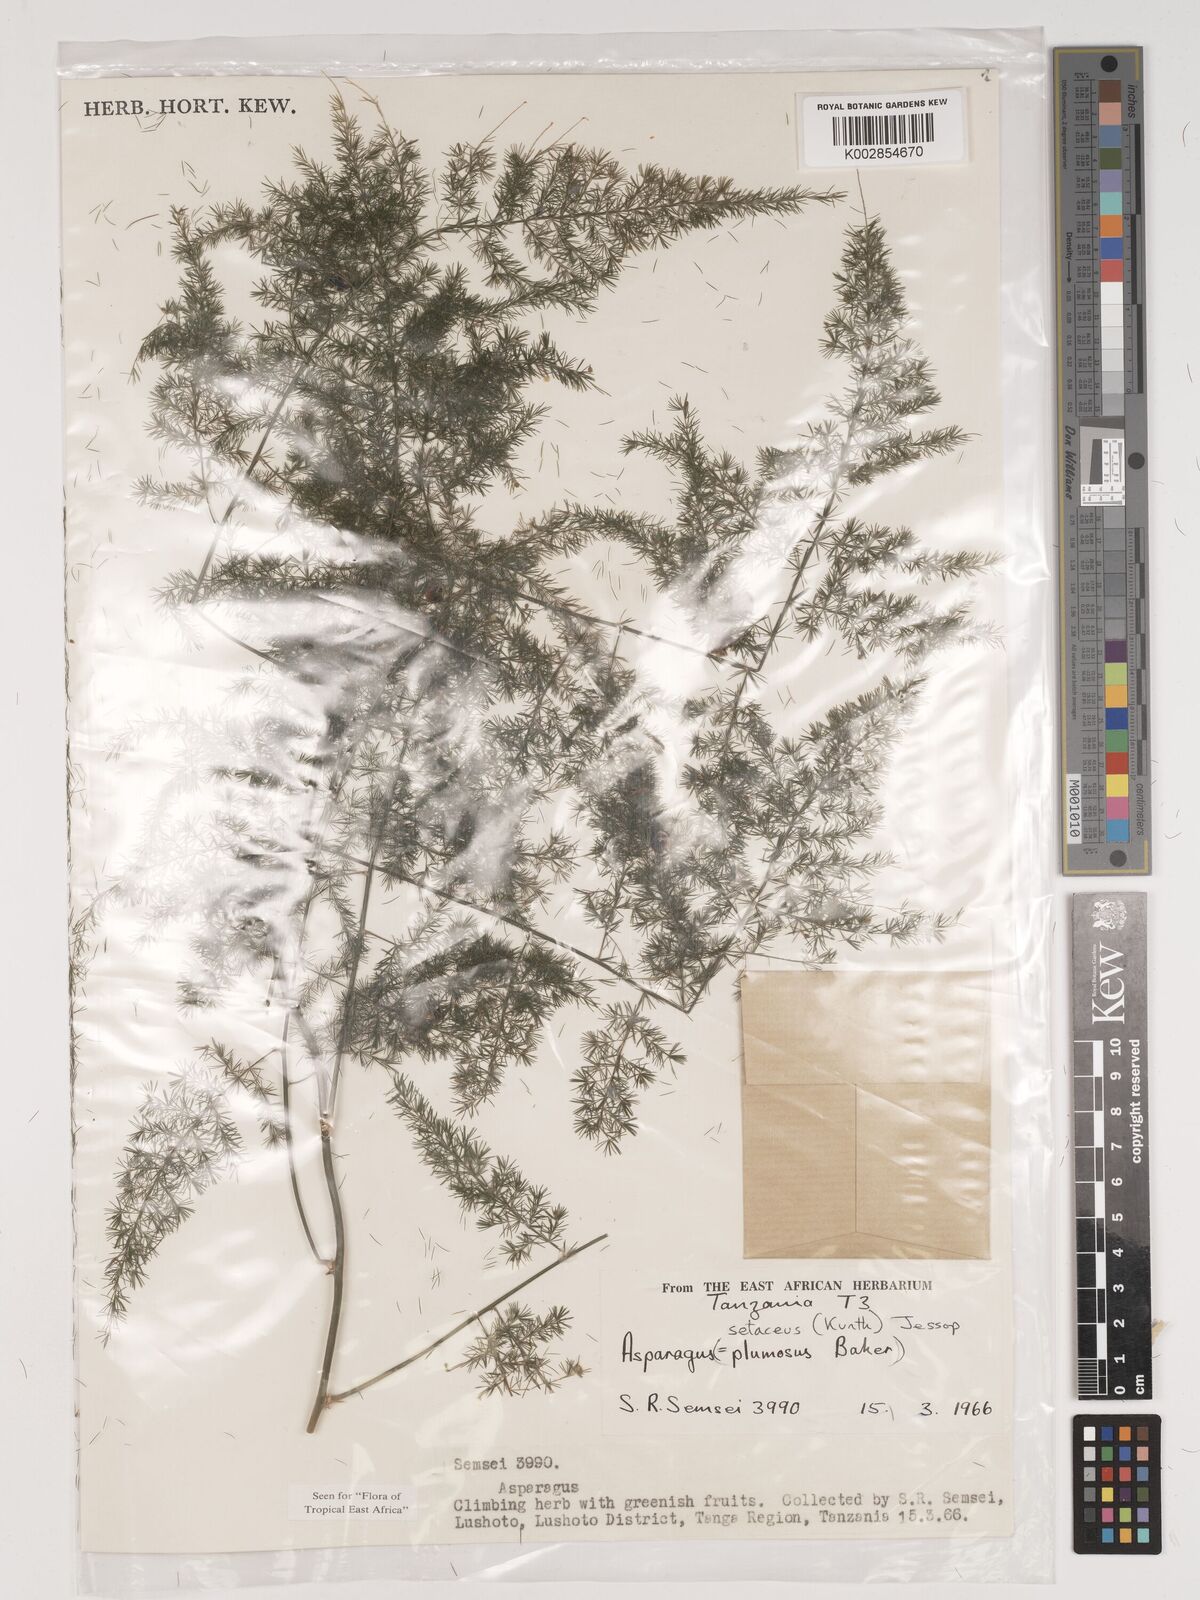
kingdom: Plantae
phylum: Tracheophyta
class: Liliopsida
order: Asparagales
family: Asparagaceae
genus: Asparagus
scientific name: Asparagus setaceus
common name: Common asparagus fern
